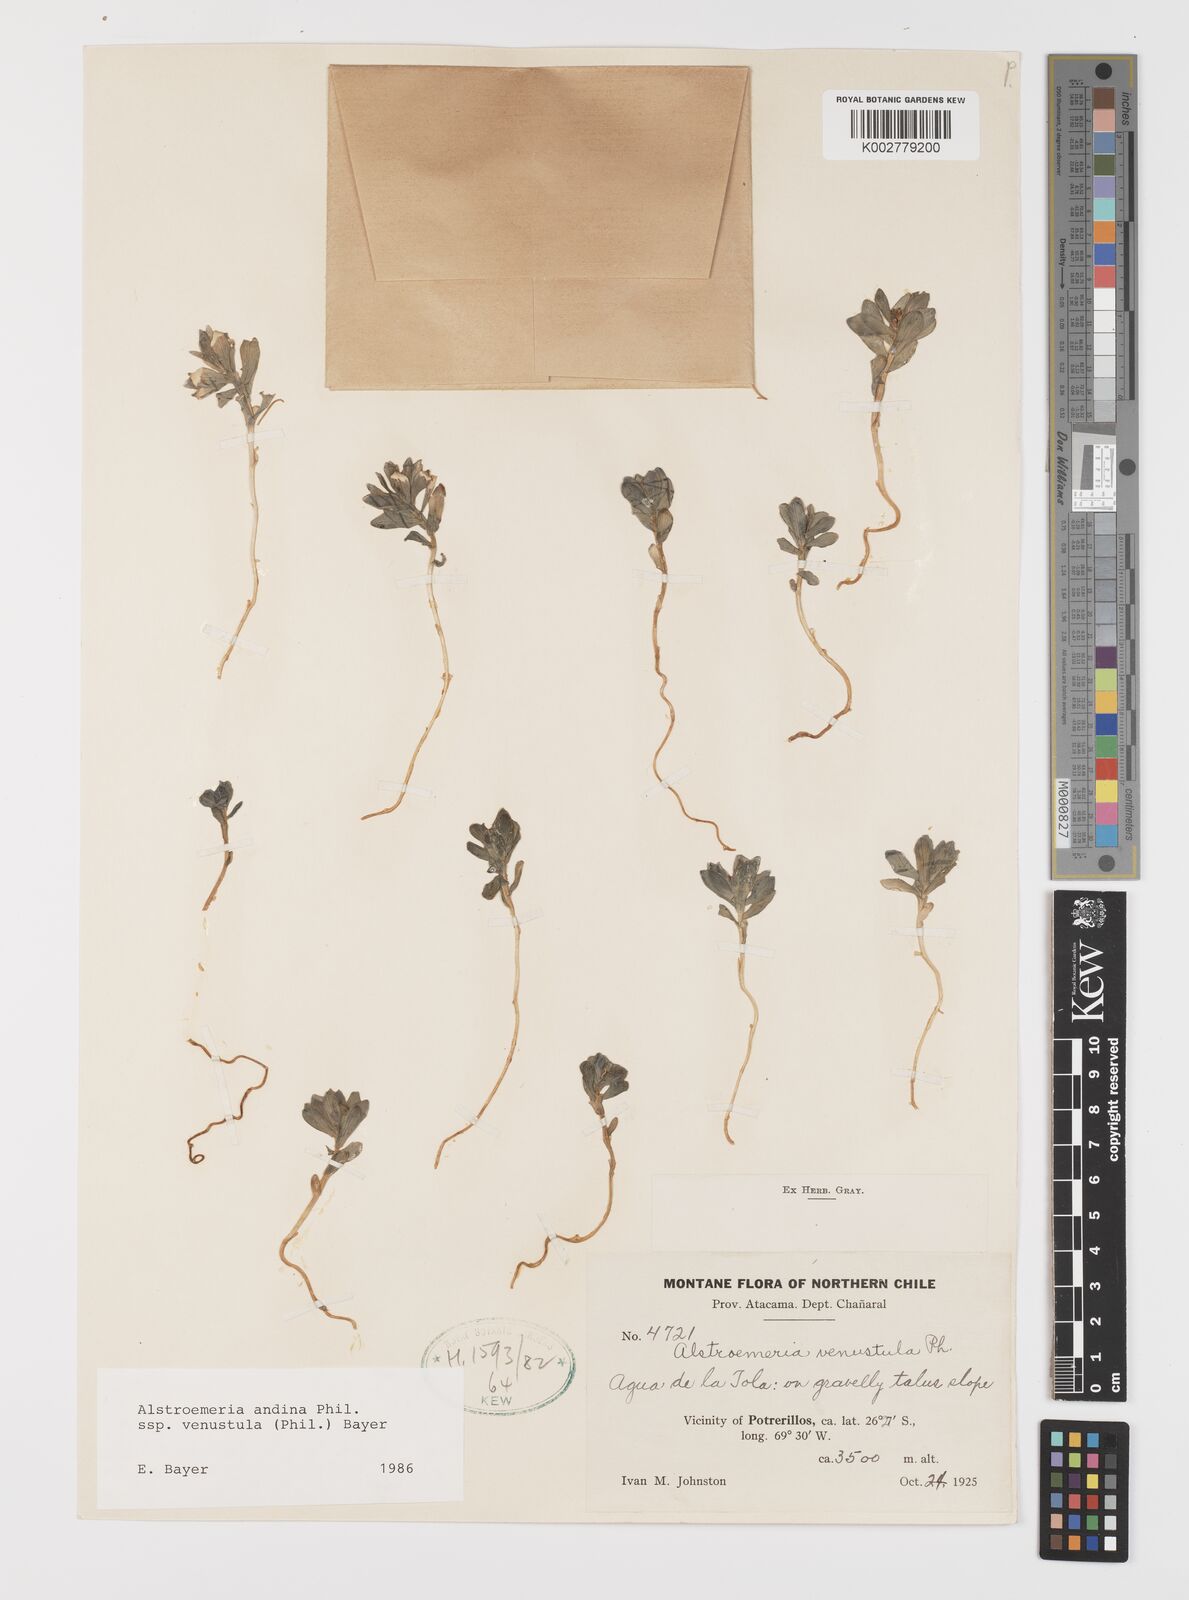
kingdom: Plantae
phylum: Tracheophyta
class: Liliopsida
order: Liliales
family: Alstroemeriaceae
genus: Alstroemeria
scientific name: Alstroemeria andina
